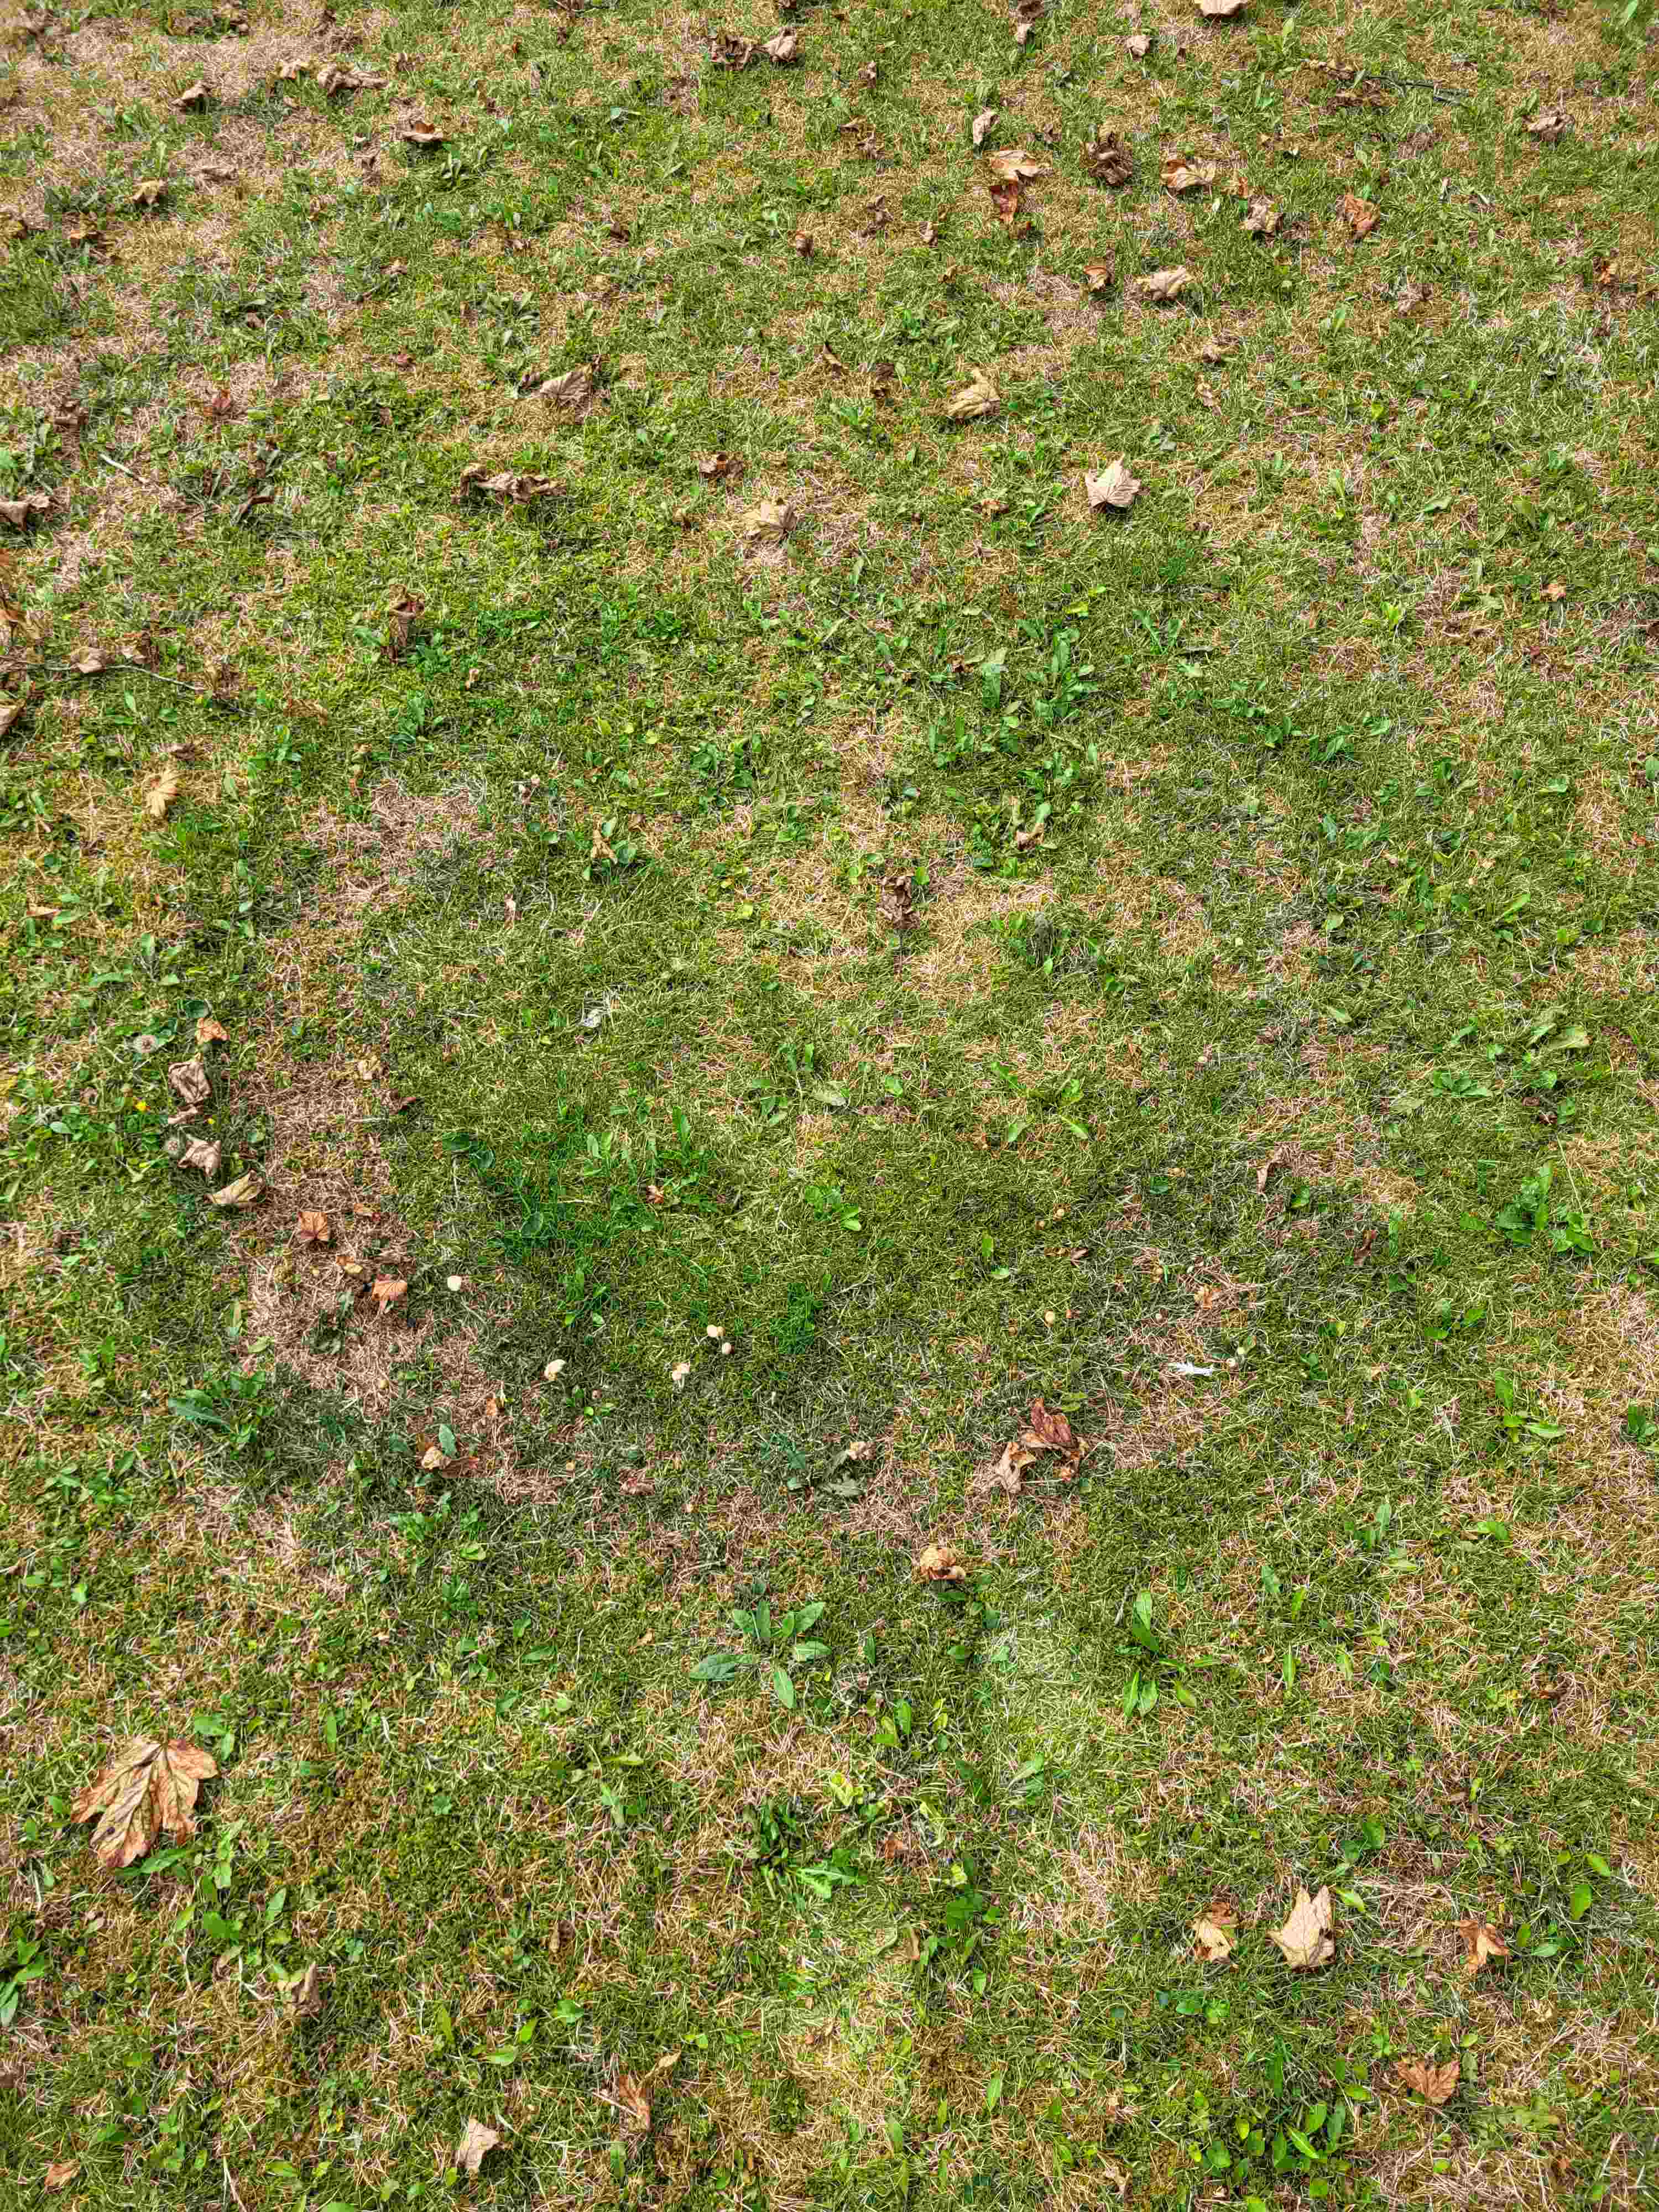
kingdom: Fungi
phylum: Basidiomycota
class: Agaricomycetes
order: Agaricales
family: Marasmiaceae
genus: Marasmius
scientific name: Marasmius oreades
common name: elledans-bruskhat
